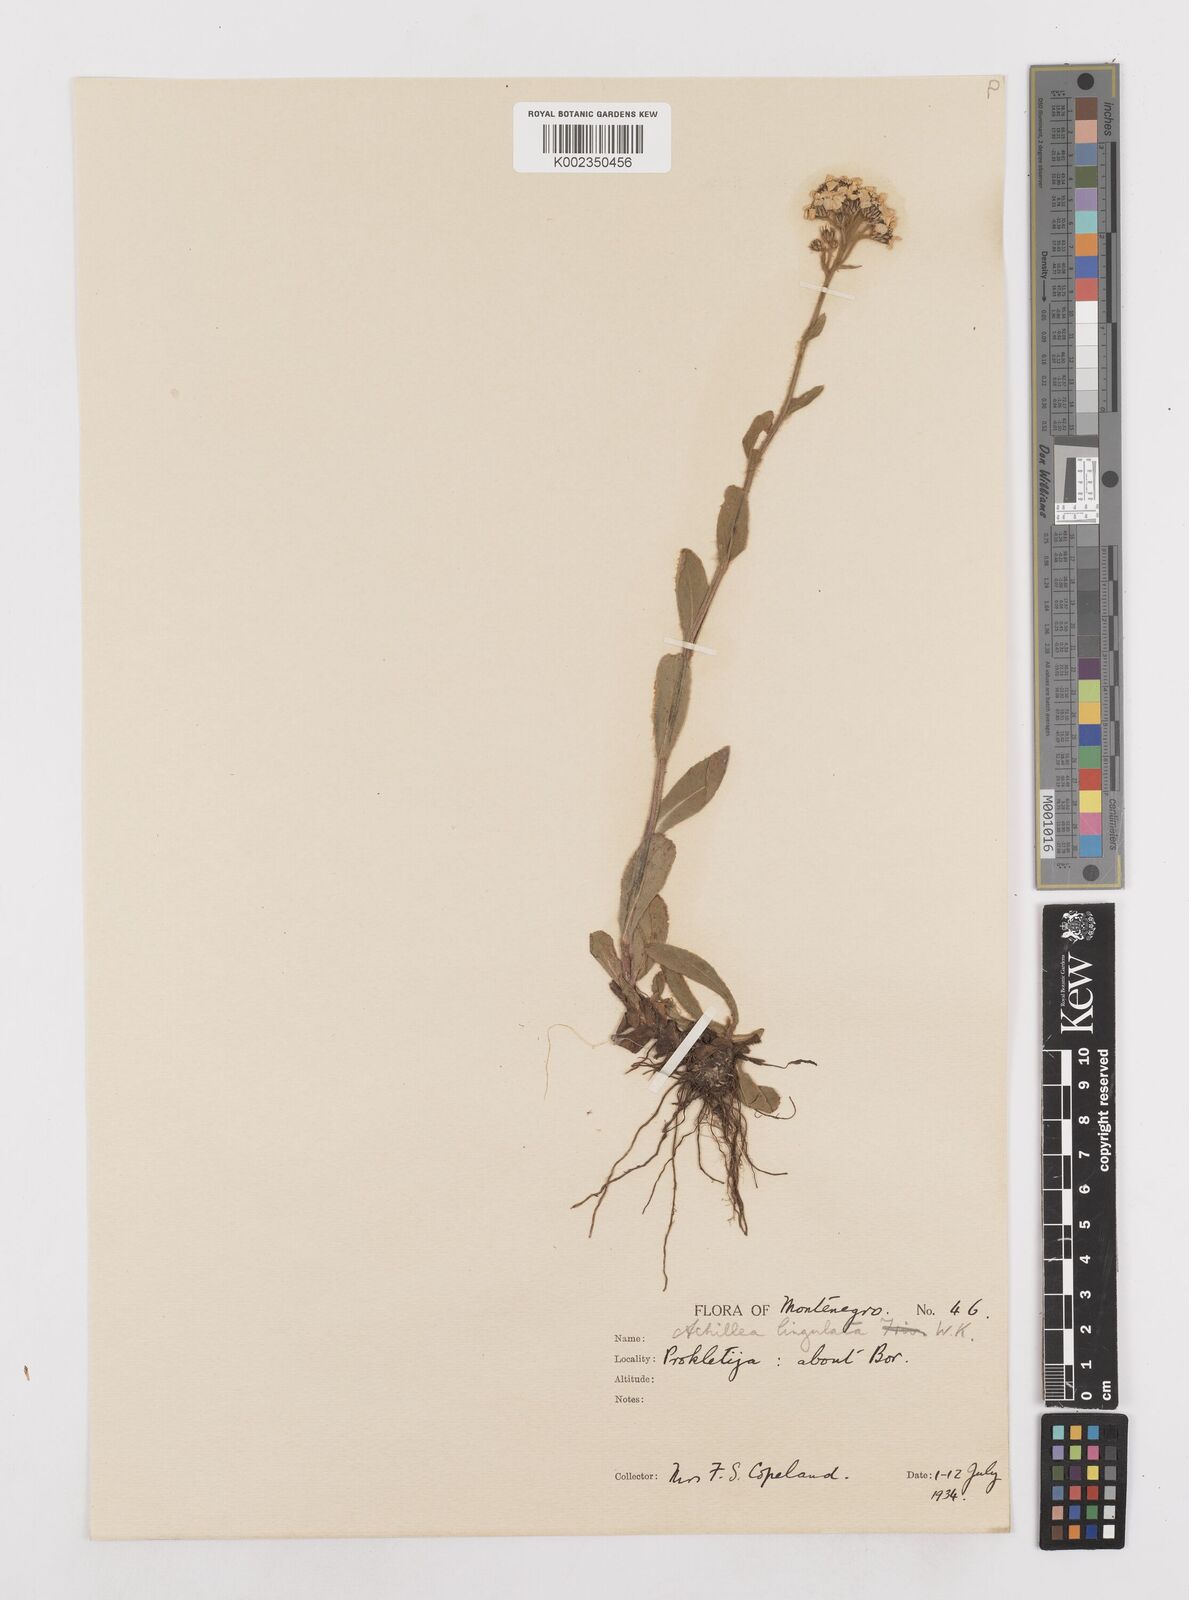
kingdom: Plantae
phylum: Tracheophyta
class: Magnoliopsida
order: Asterales
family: Asteraceae
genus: Achillea
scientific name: Achillea lingulata
